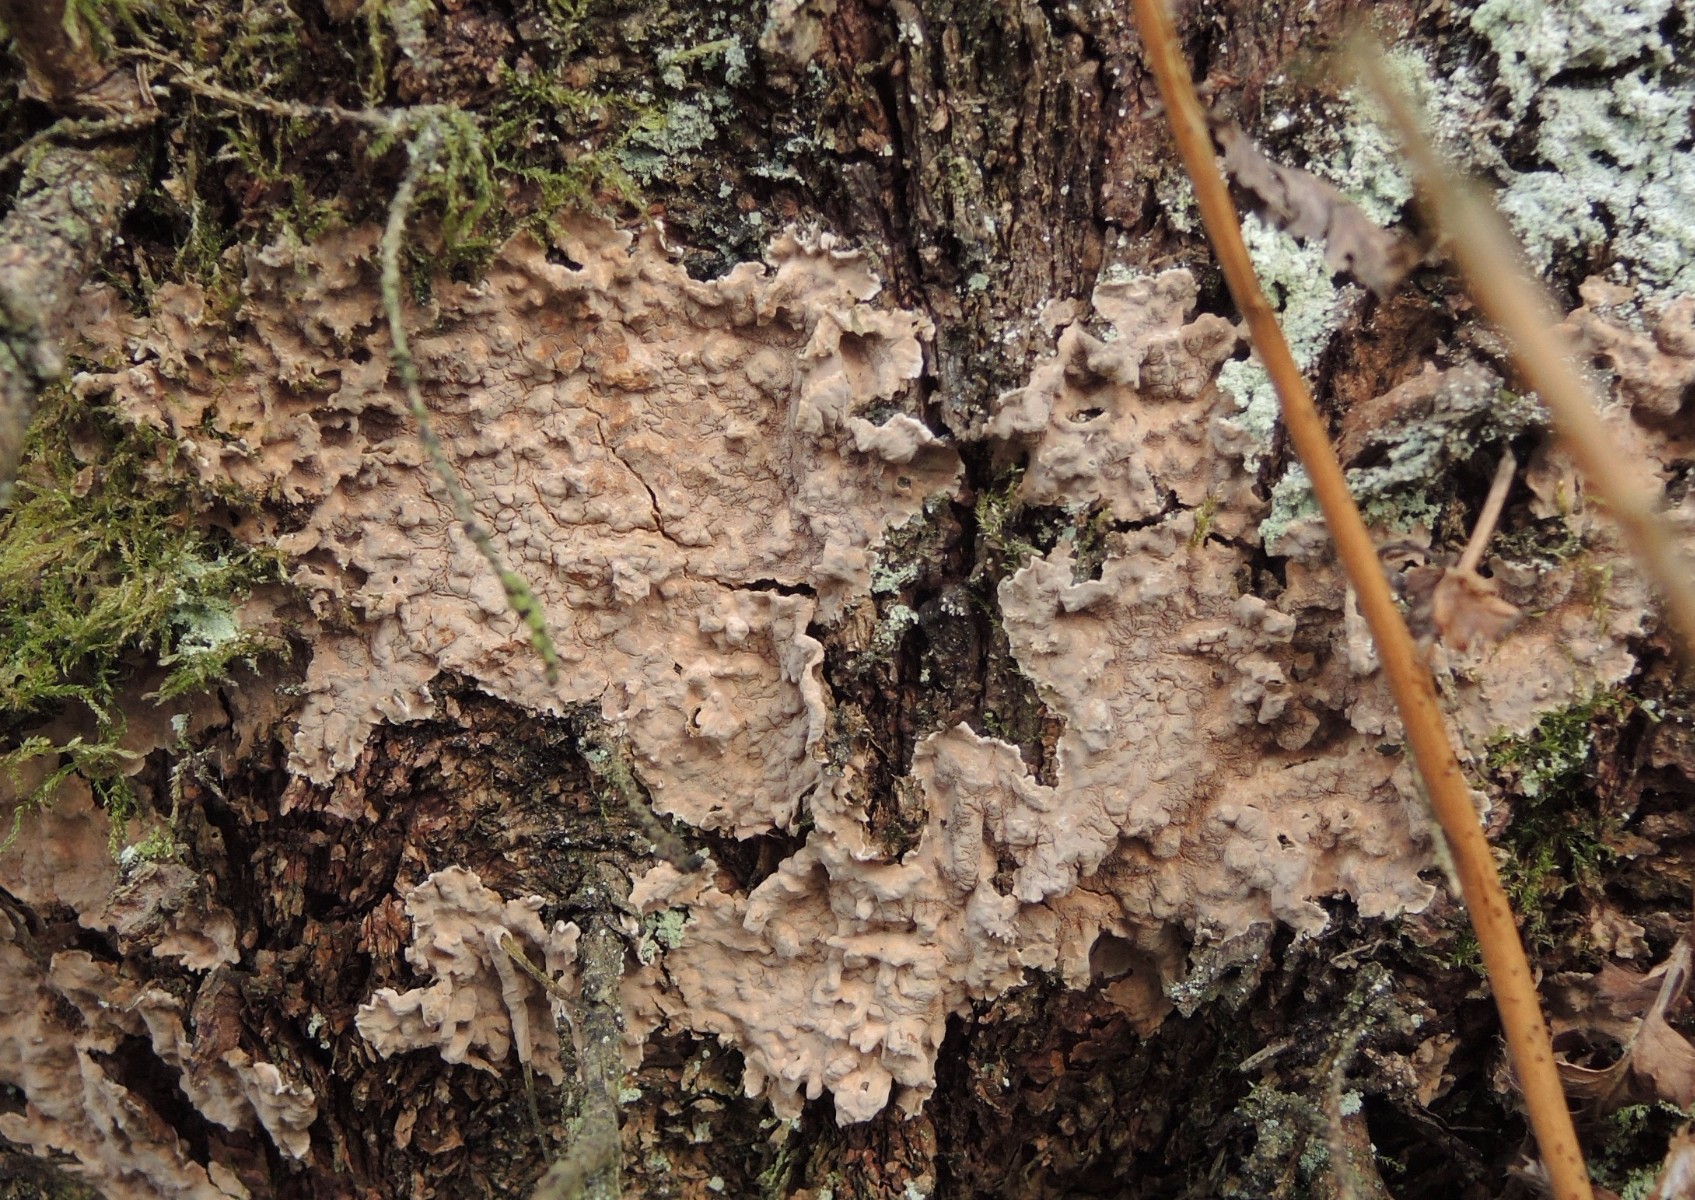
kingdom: Fungi
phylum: Basidiomycota
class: Agaricomycetes
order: Russulales
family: Echinodontiaceae
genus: Amylostereum
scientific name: Amylostereum chailletii
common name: gran-lædersvamp
